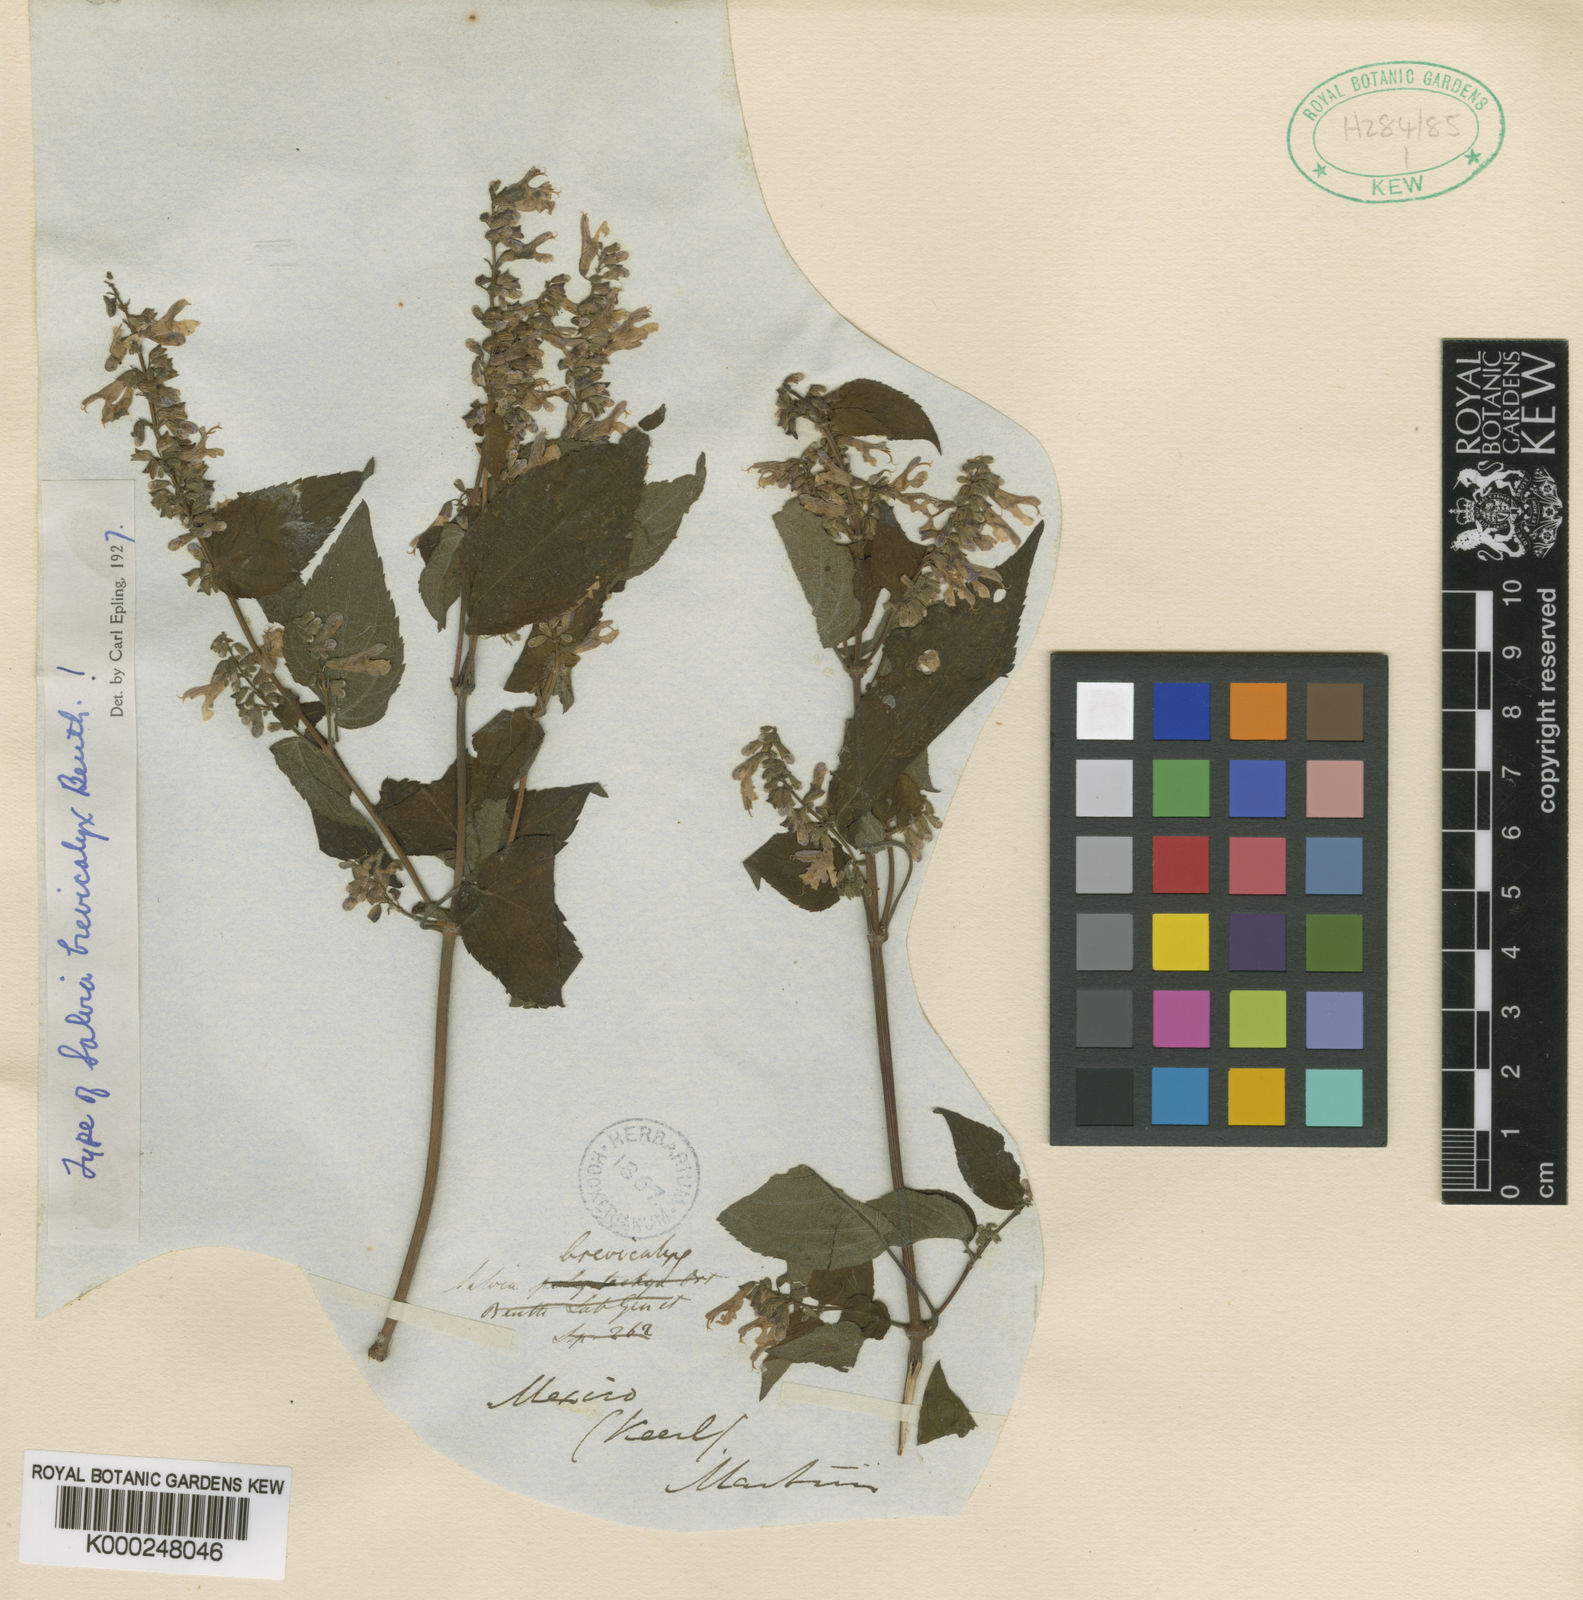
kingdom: Plantae
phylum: Tracheophyta
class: Magnoliopsida
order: Lamiales
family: Lamiaceae
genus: Salvia
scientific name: Salvia polystachia
